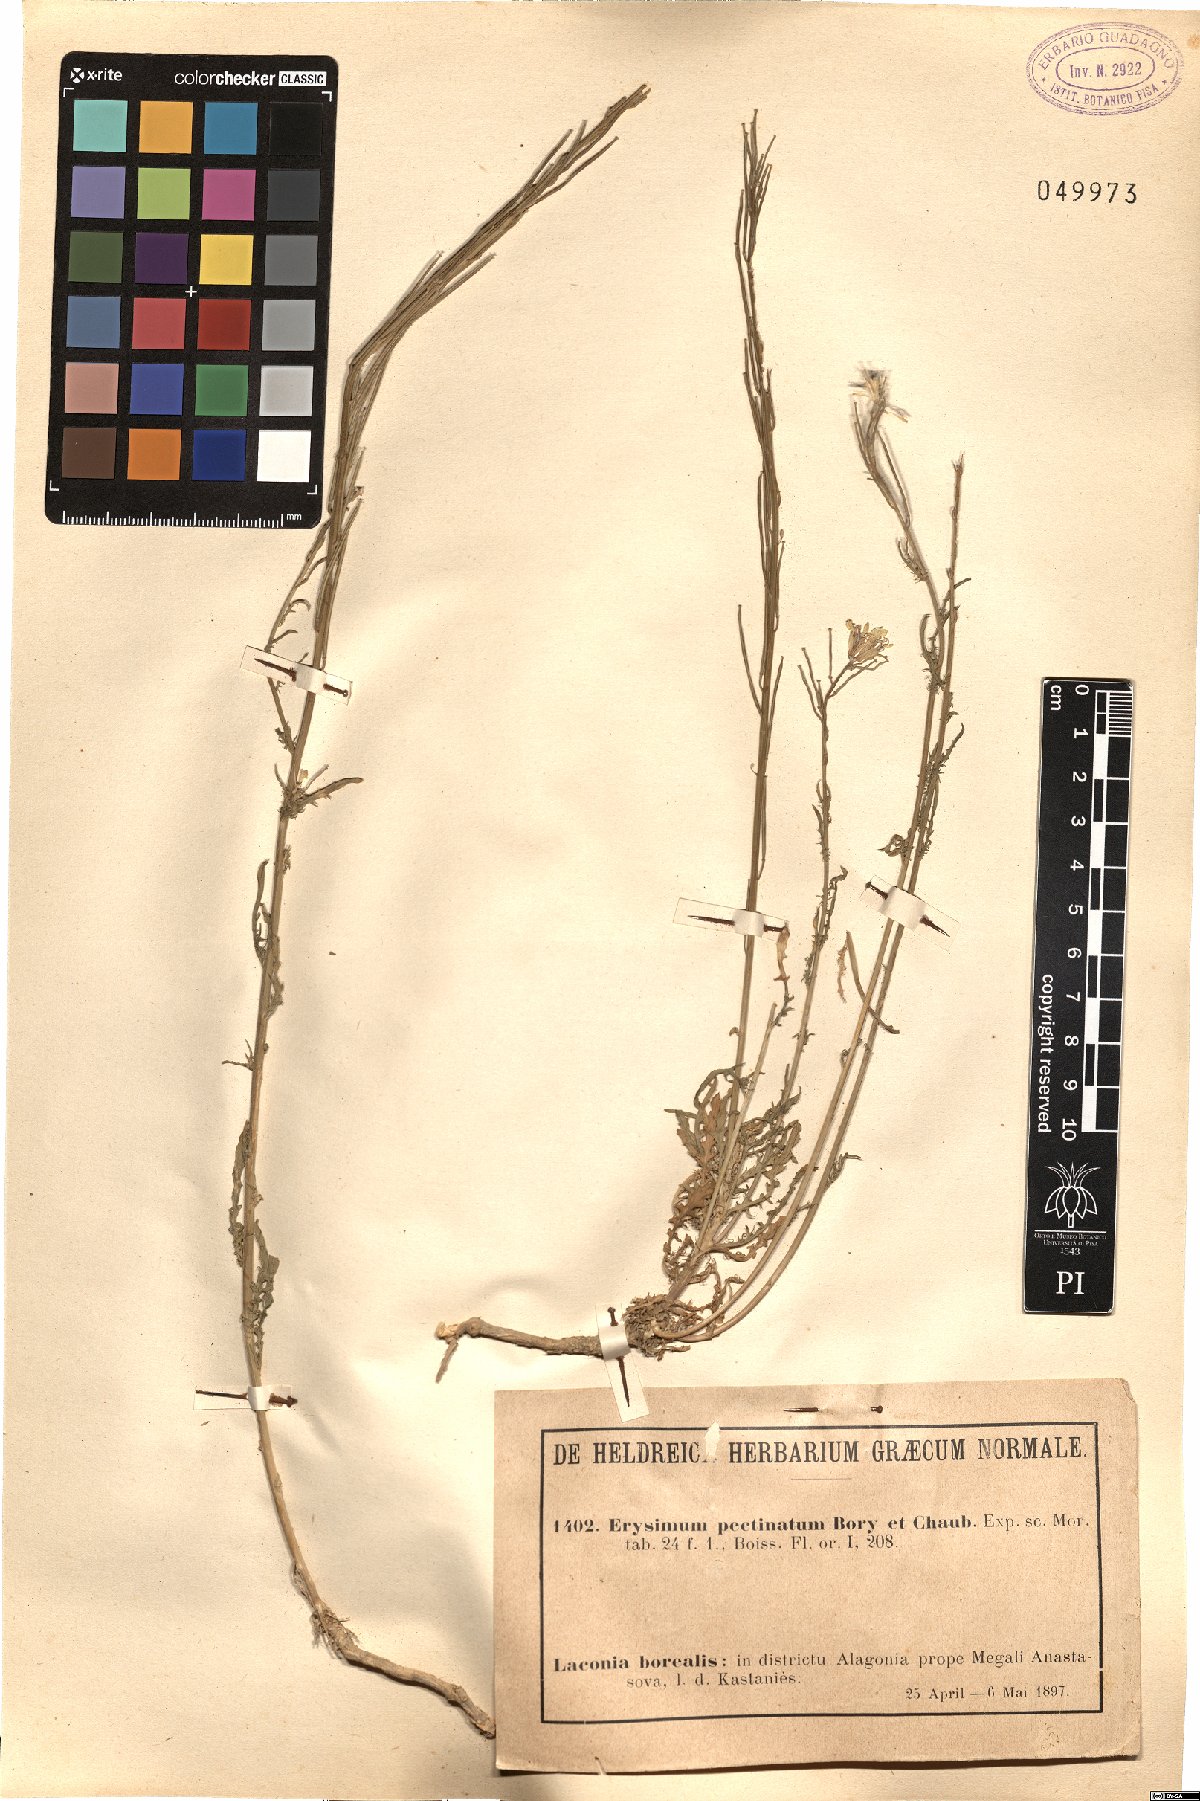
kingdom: Plantae
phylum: Tracheophyta
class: Magnoliopsida
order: Brassicales
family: Brassicaceae
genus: Erysimum
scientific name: Erysimum pectinatum
